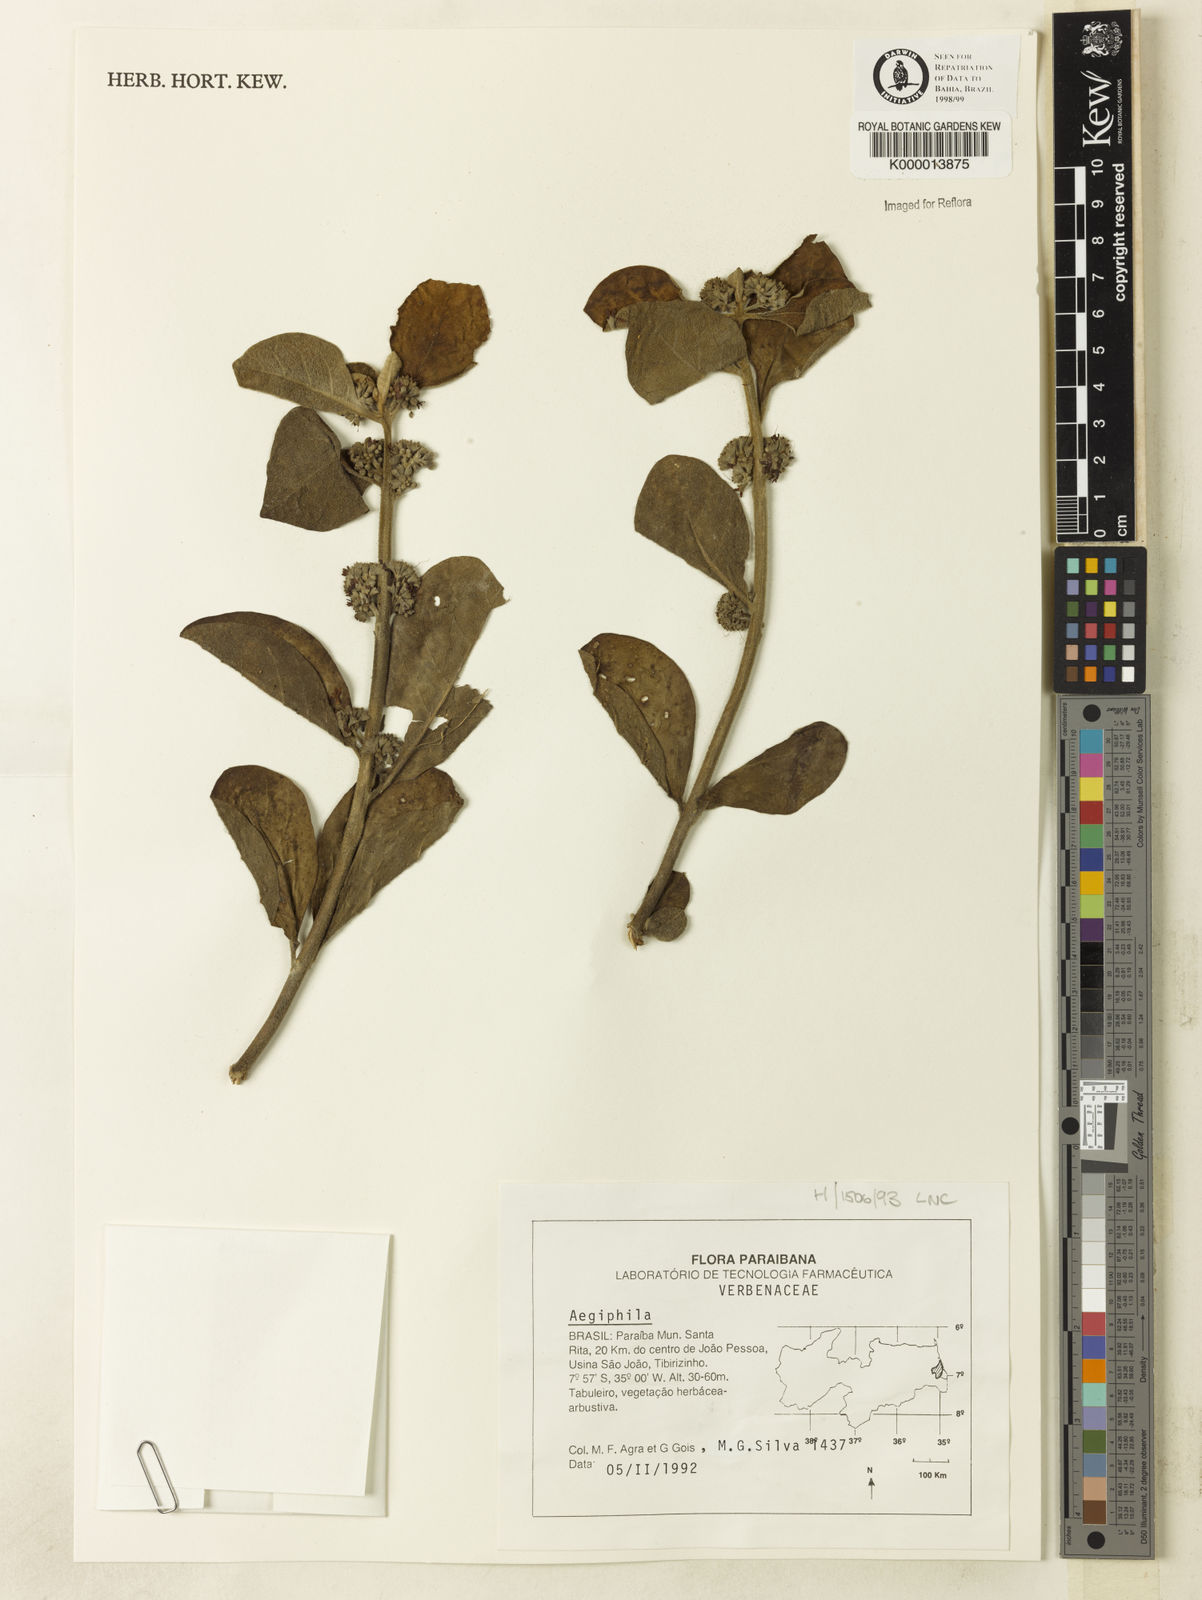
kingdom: Plantae
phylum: Tracheophyta
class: Magnoliopsida
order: Lamiales
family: Lamiaceae
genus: Aegiphila
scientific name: Aegiphila
